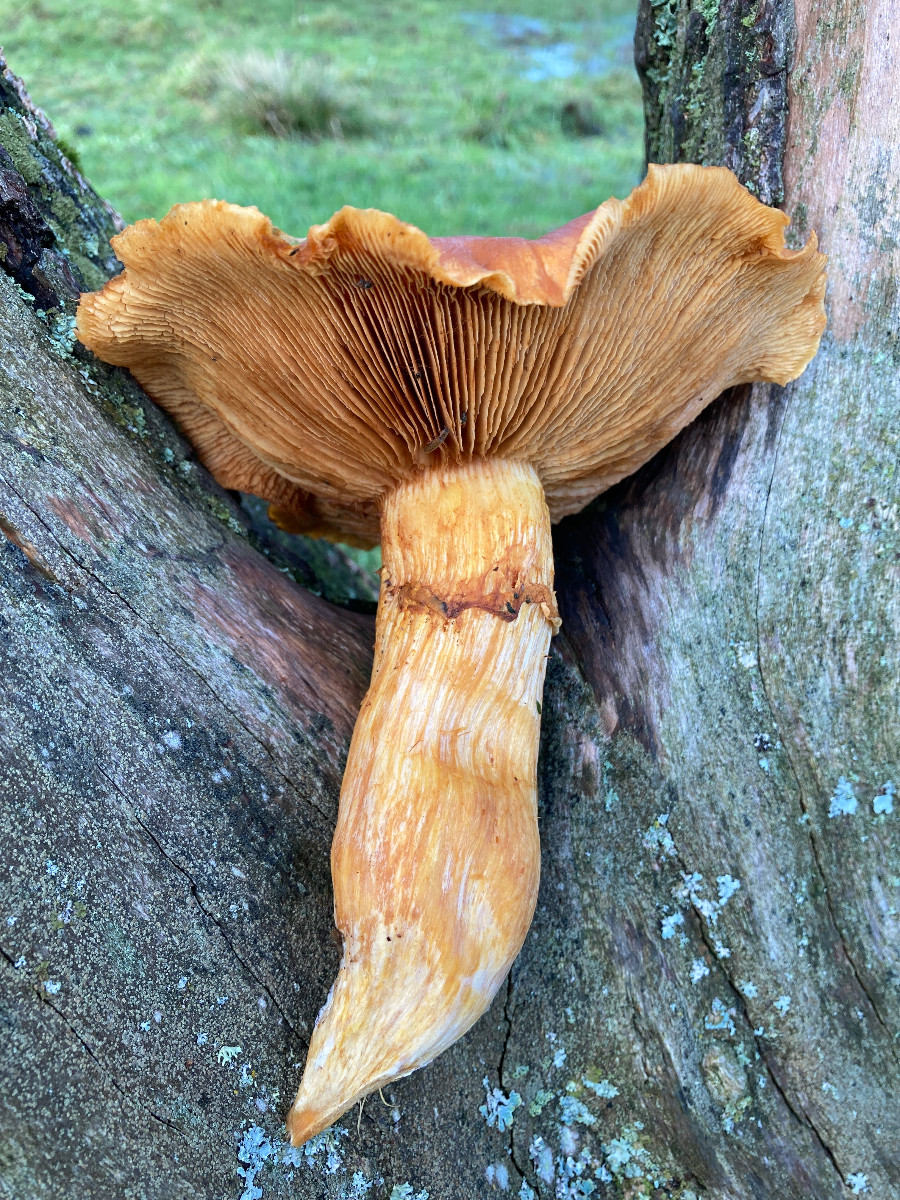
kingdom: Fungi
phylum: Basidiomycota
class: Agaricomycetes
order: Agaricales
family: Hymenogastraceae
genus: Gymnopilus
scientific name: Gymnopilus spectabilis
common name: fibret flammehat
